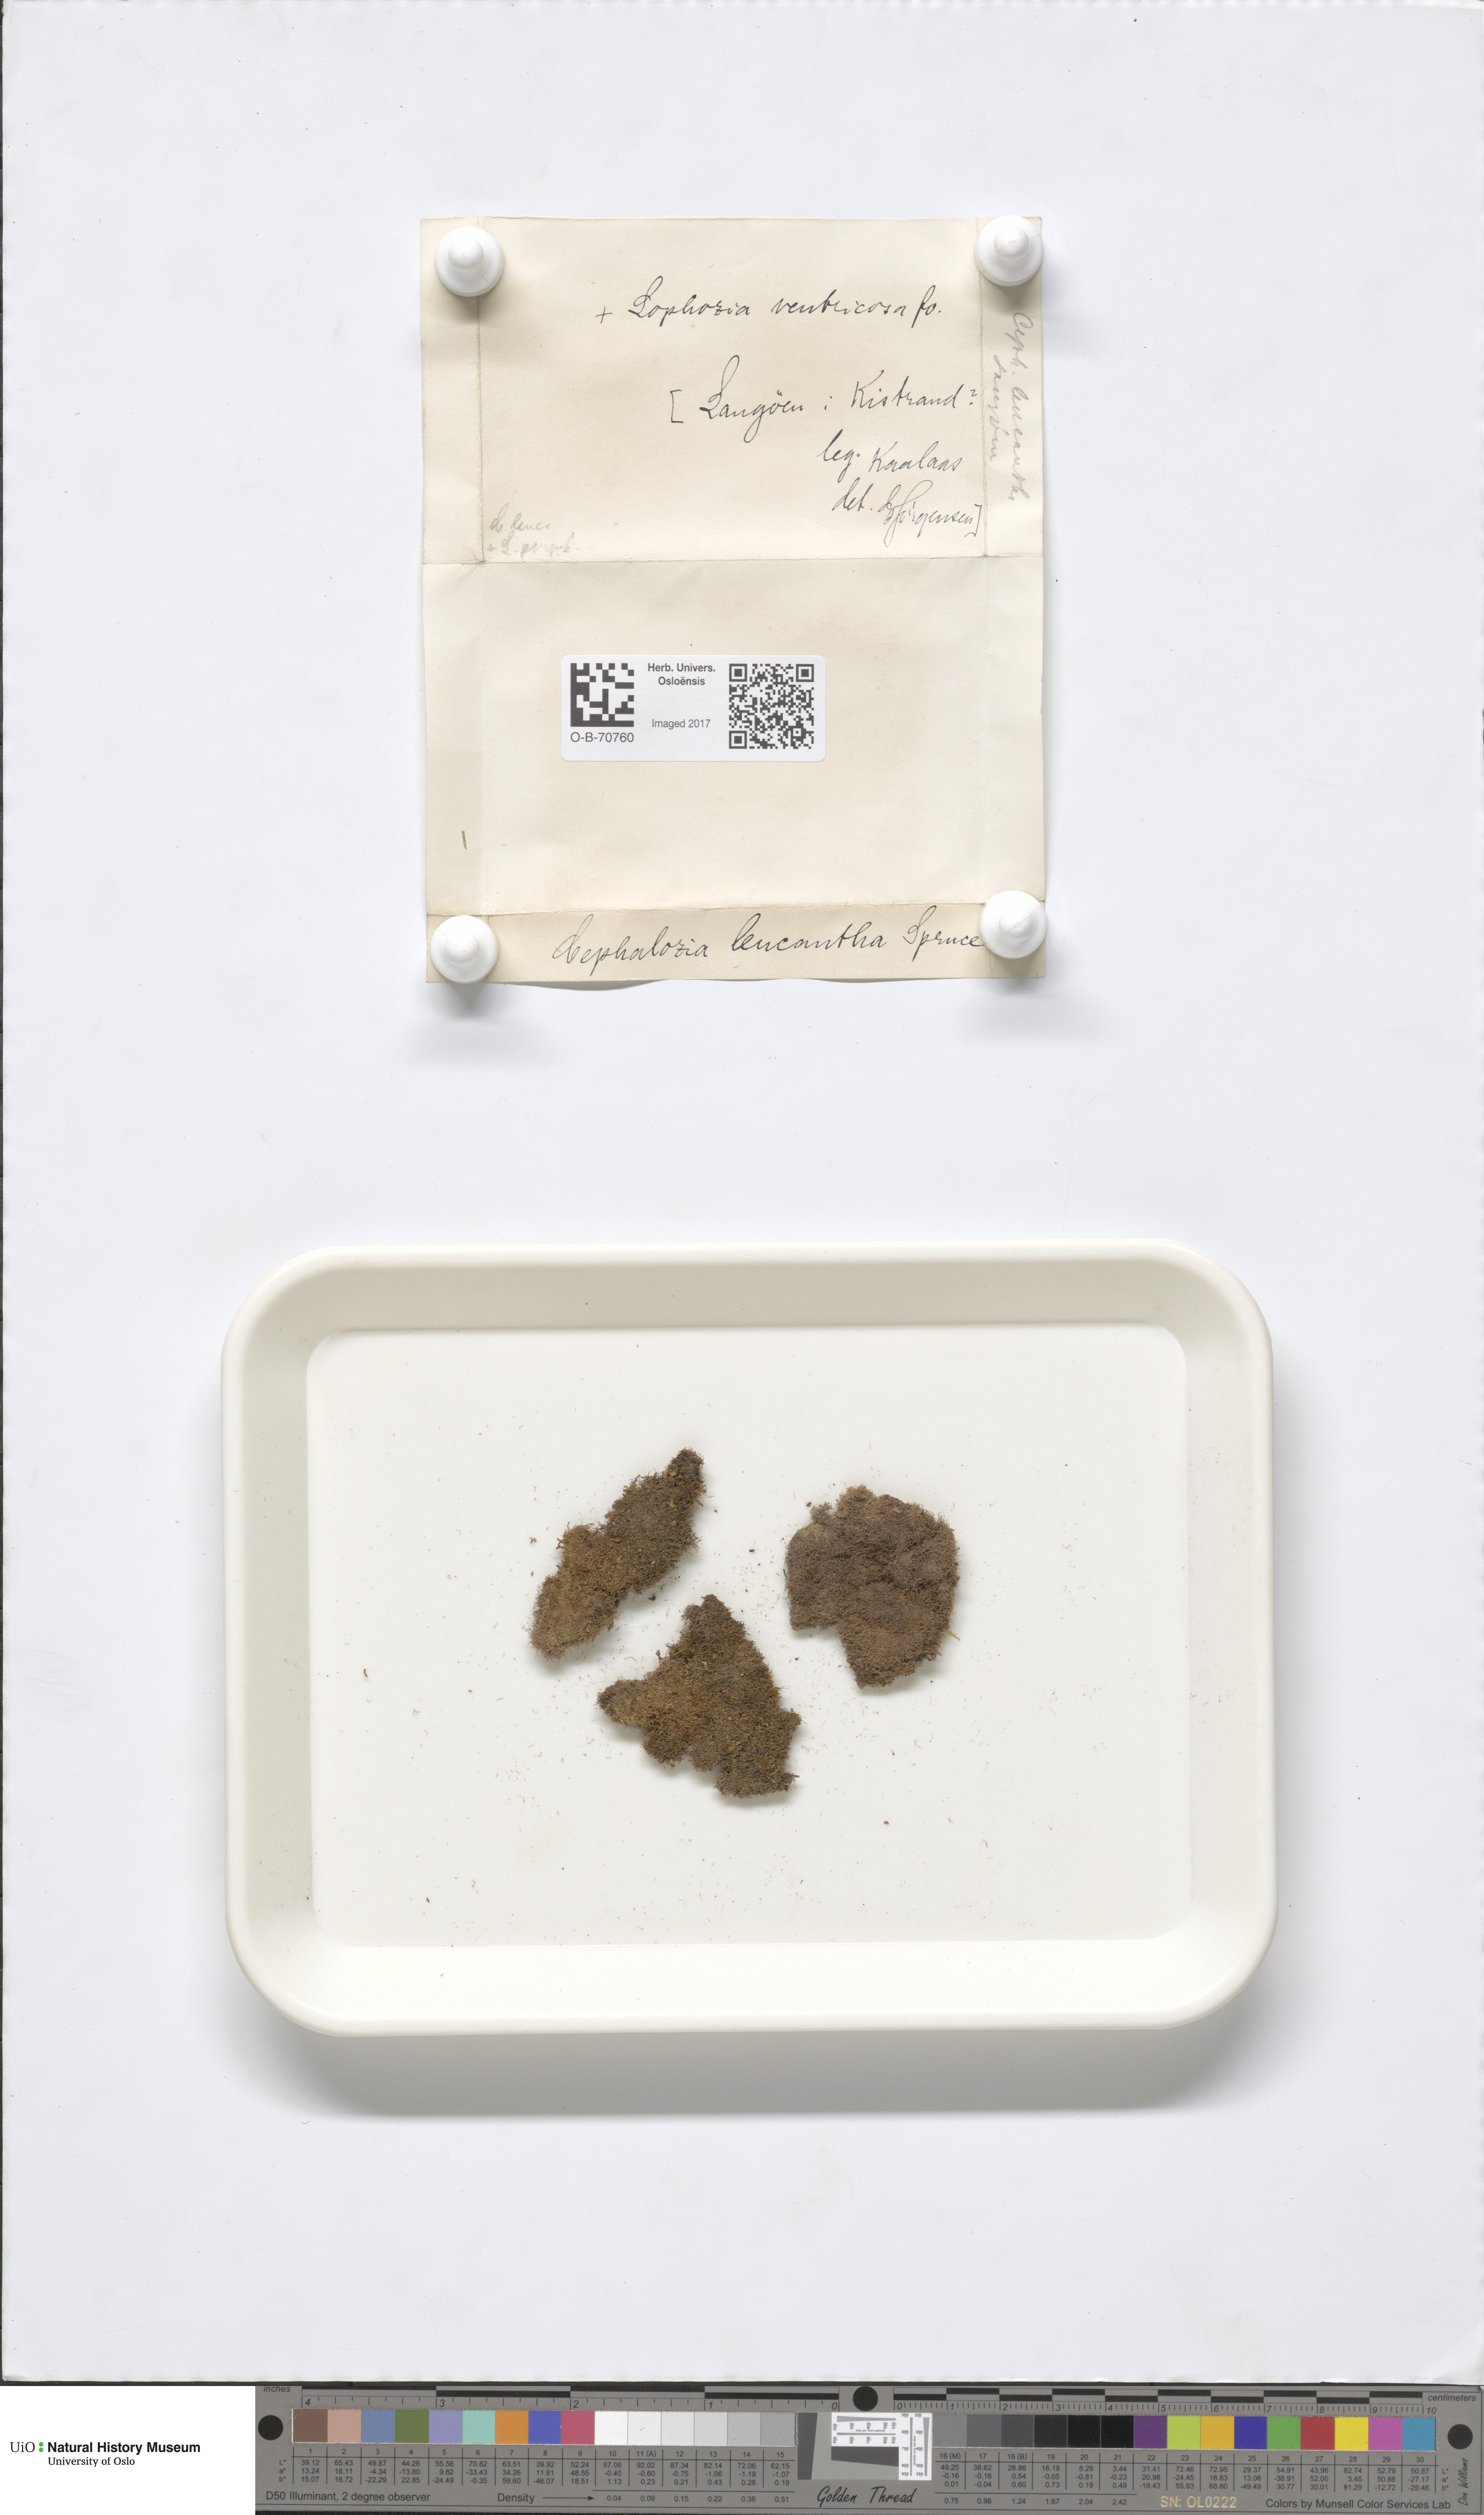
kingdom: Plantae
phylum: Marchantiophyta
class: Jungermanniopsida
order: Jungermanniales
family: Cephaloziaceae
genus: Fuscocephaloziopsis
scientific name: Fuscocephaloziopsis leucantha
